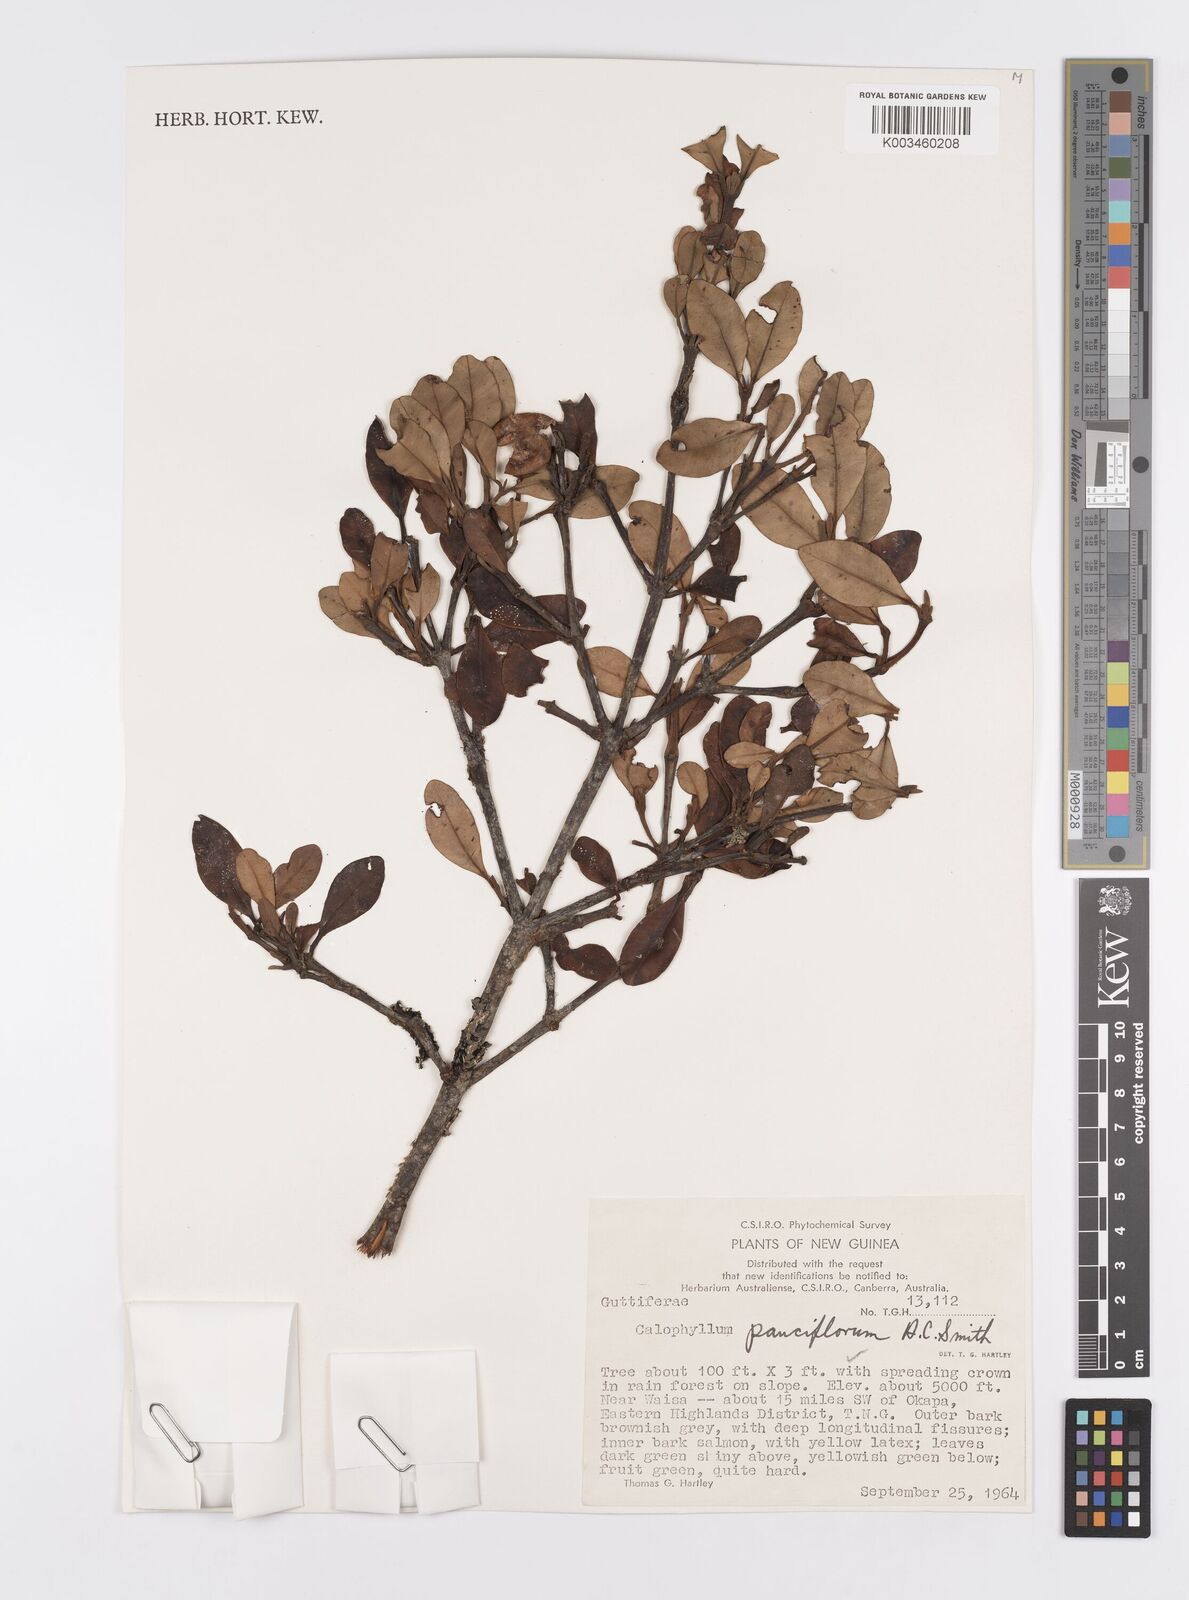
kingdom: Plantae
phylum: Tracheophyta
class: Magnoliopsida
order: Malpighiales
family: Calophyllaceae
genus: Calophyllum
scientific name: Calophyllum parviflorum
